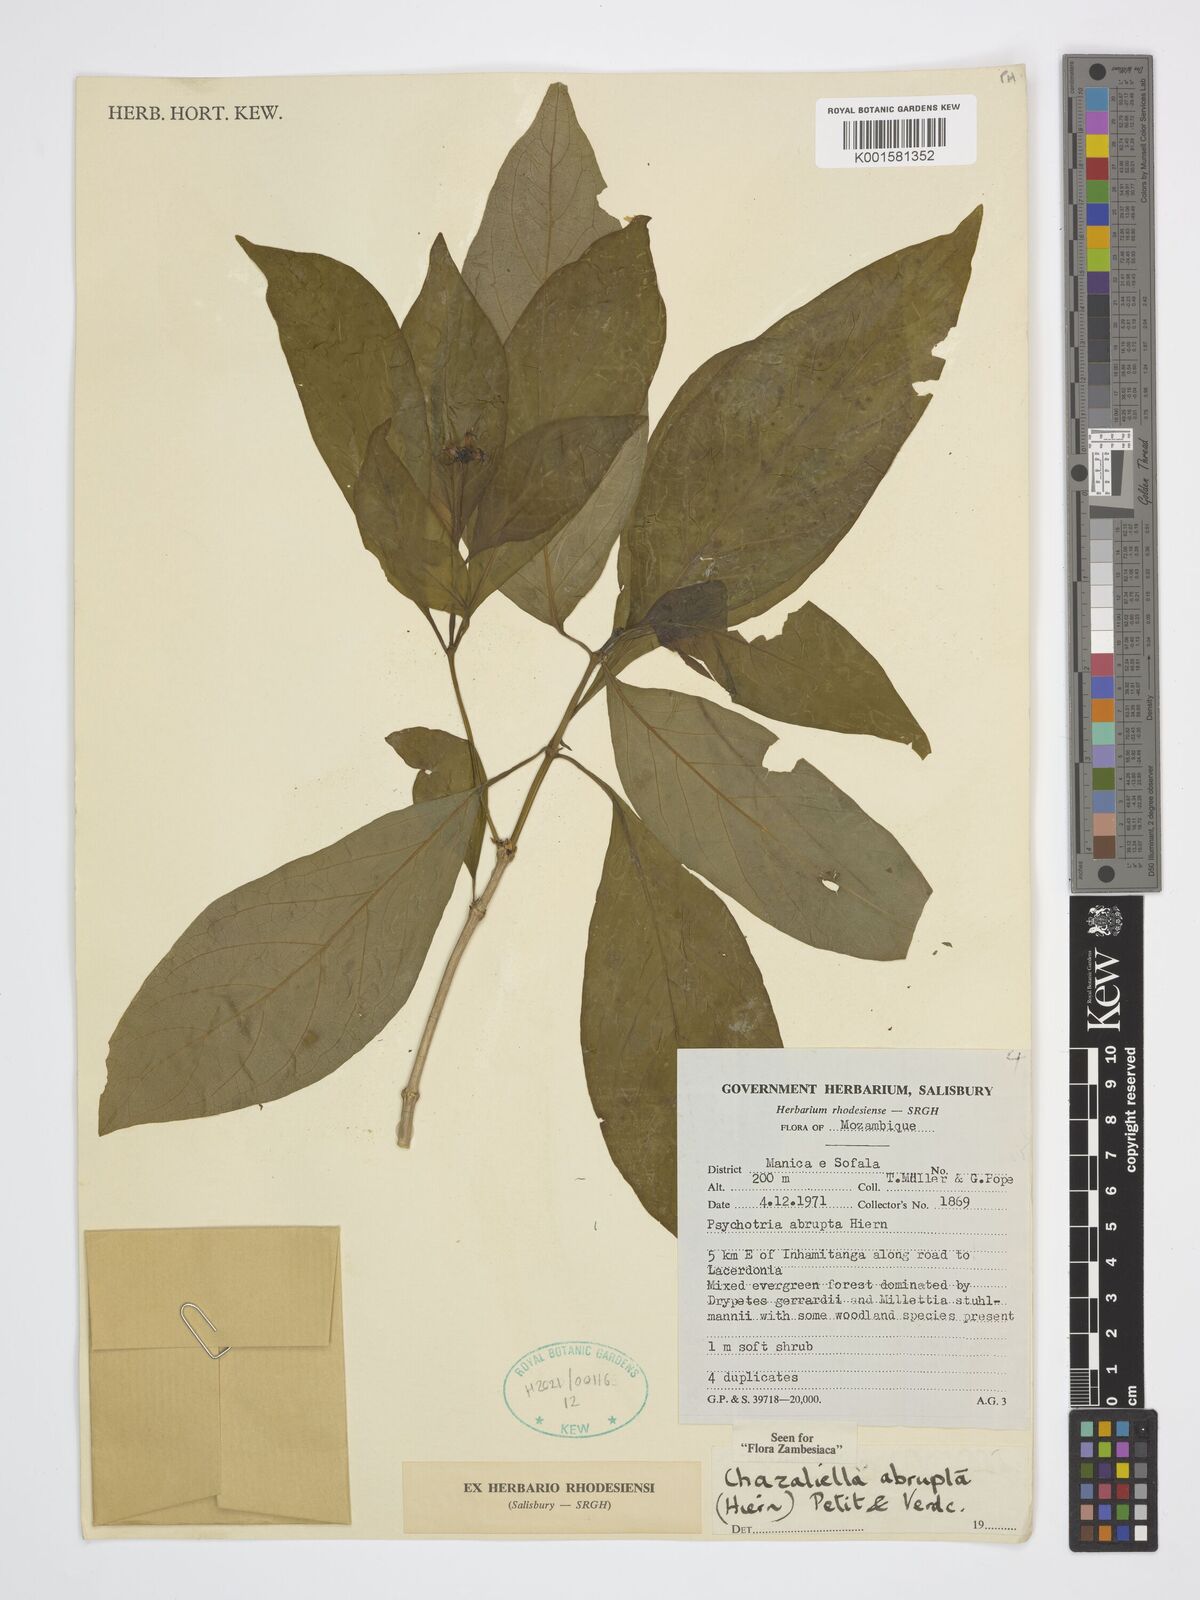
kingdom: Plantae
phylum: Tracheophyta
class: Magnoliopsida
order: Gentianales
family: Rubiaceae
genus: Eumachia
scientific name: Eumachia abrupta
